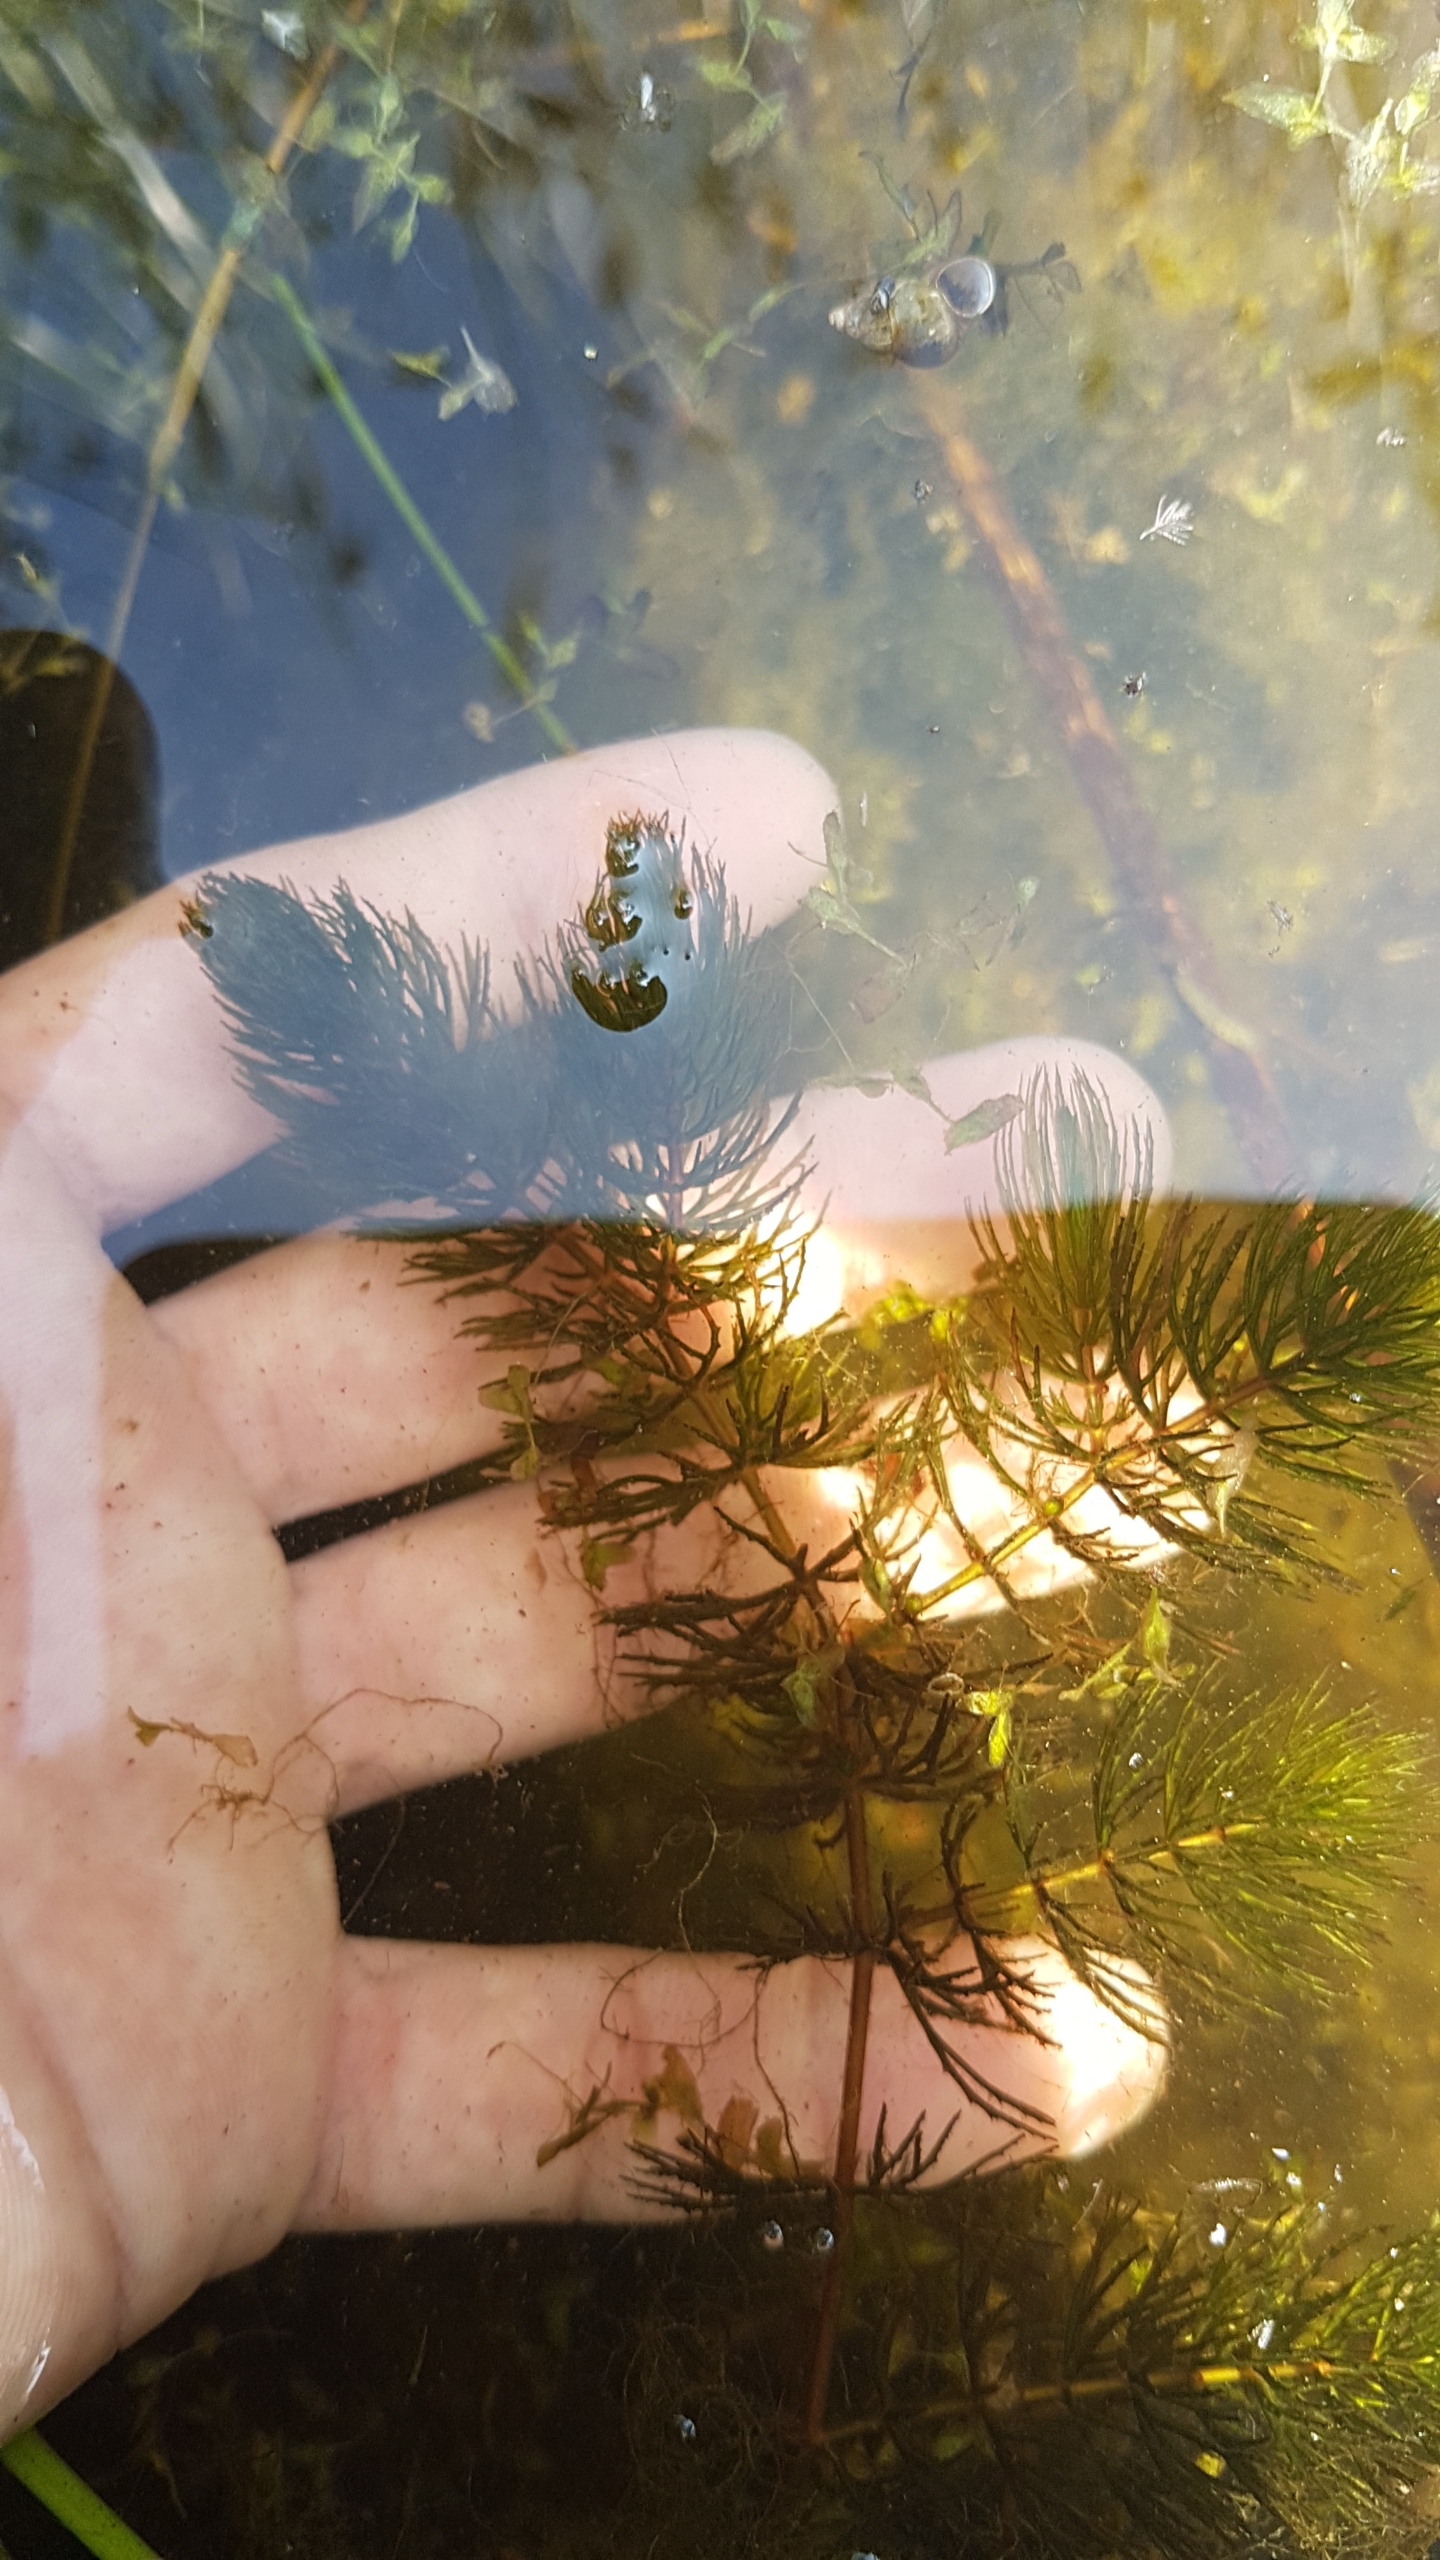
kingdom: Plantae
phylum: Tracheophyta
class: Magnoliopsida
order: Ceratophyllales
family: Ceratophyllaceae
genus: Ceratophyllum
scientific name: Ceratophyllum demersum
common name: Tornfrøet hornblad
